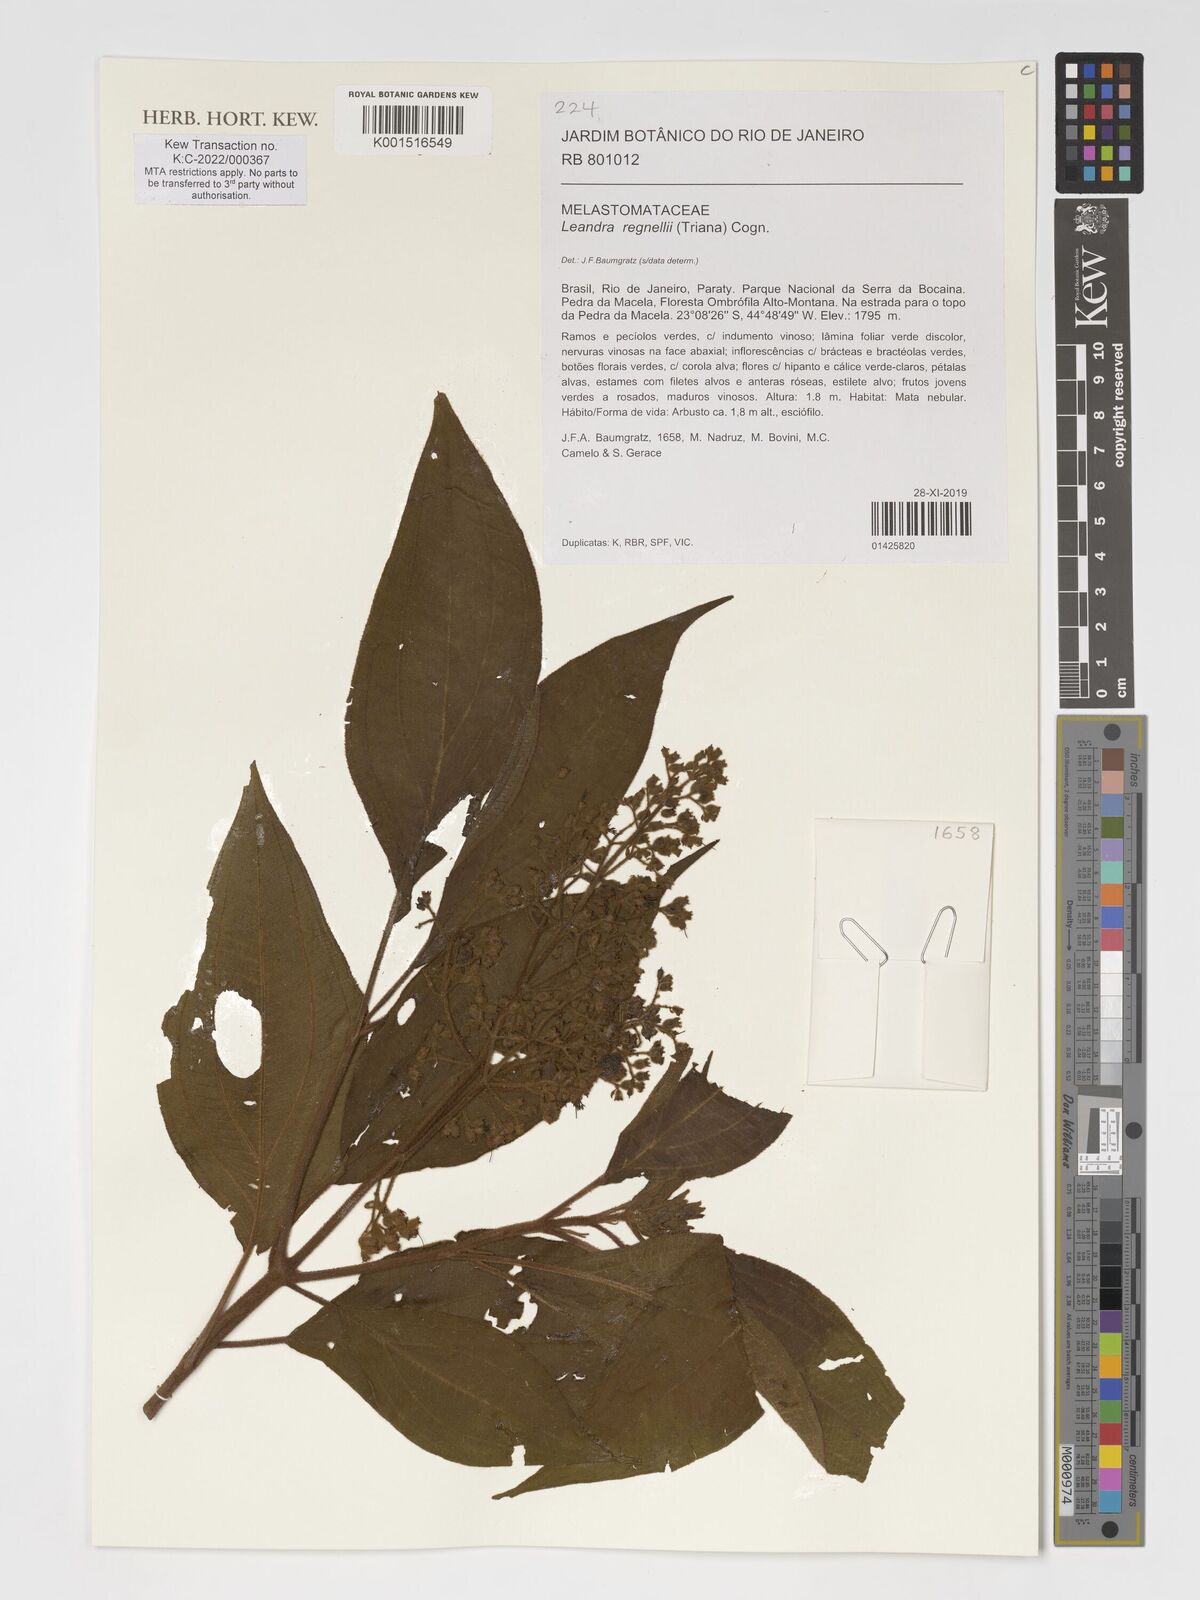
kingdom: Plantae
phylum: Tracheophyta
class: Magnoliopsida
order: Myrtales
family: Melastomataceae
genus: Miconia
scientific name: Miconia alterninervia
